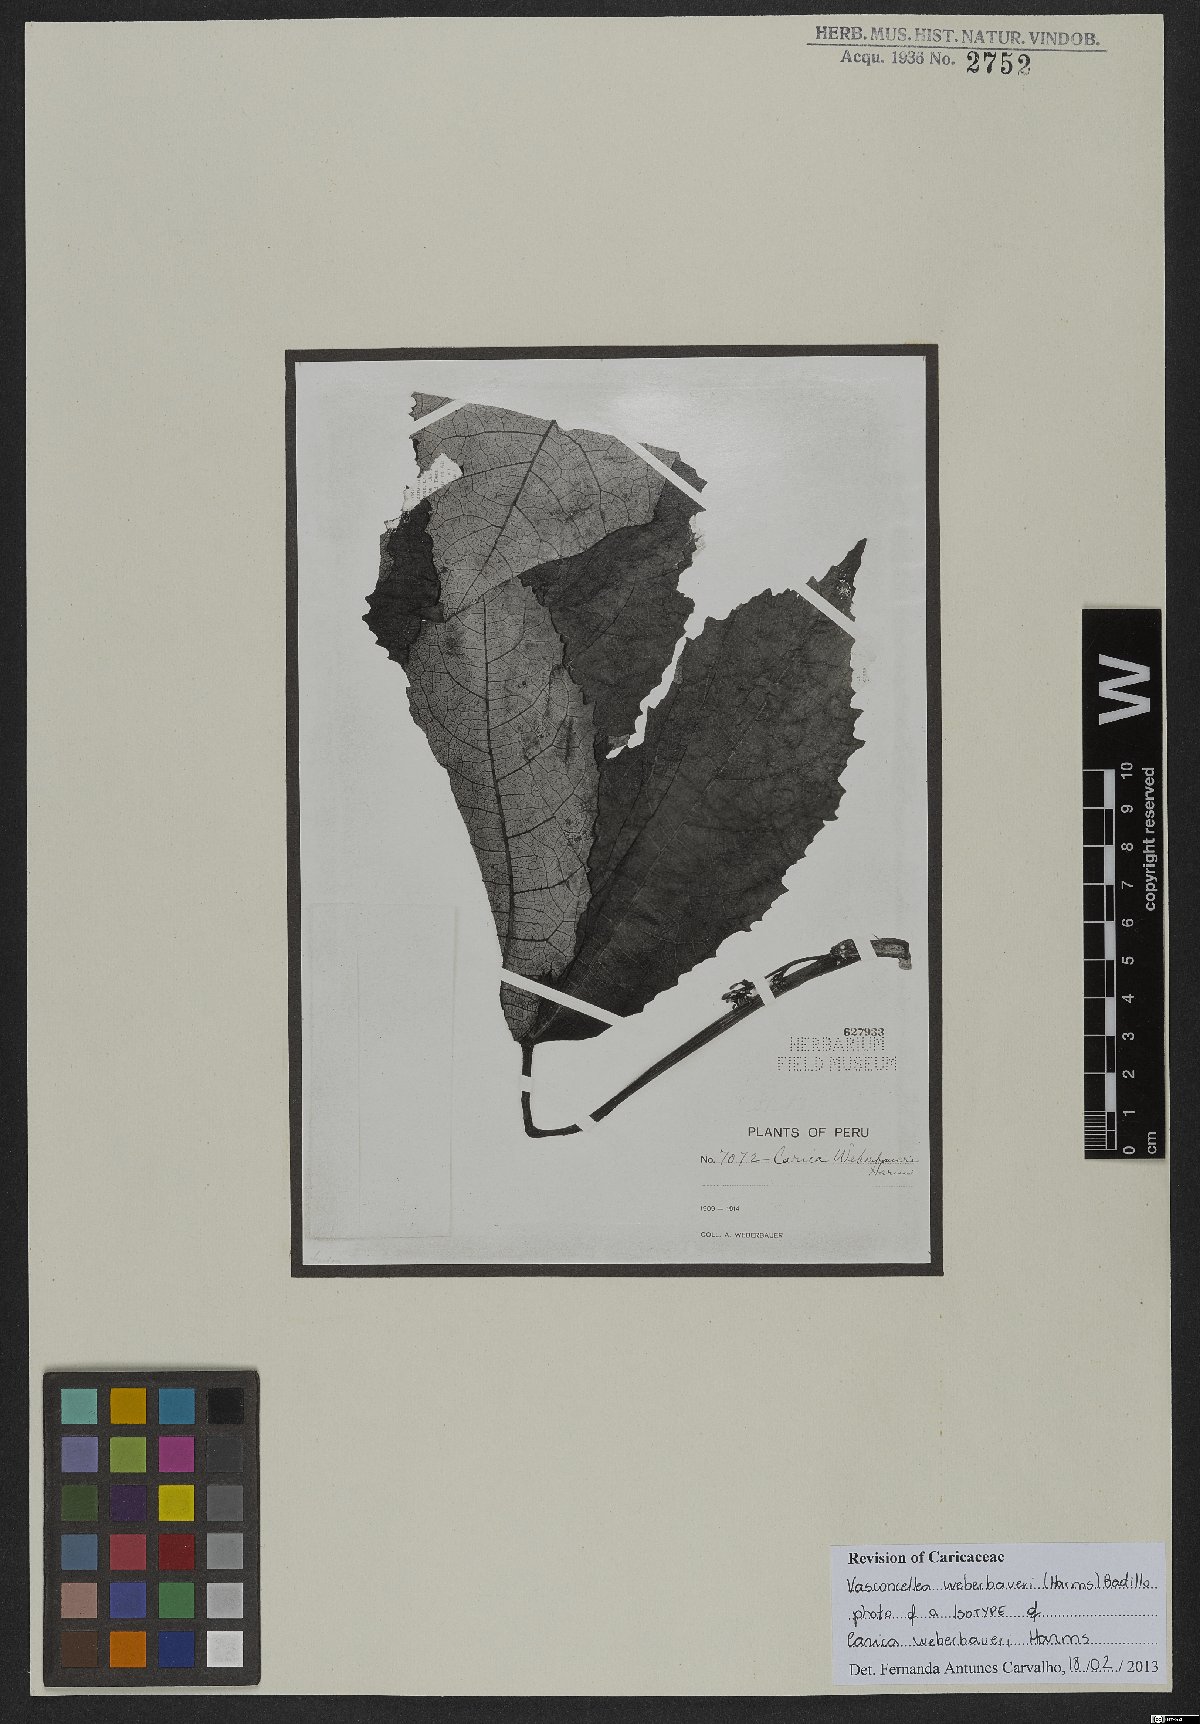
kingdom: Plantae
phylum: Tracheophyta
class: Magnoliopsida
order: Brassicales
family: Caricaceae
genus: Vasconcellea
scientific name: Vasconcellea weberbaueri
